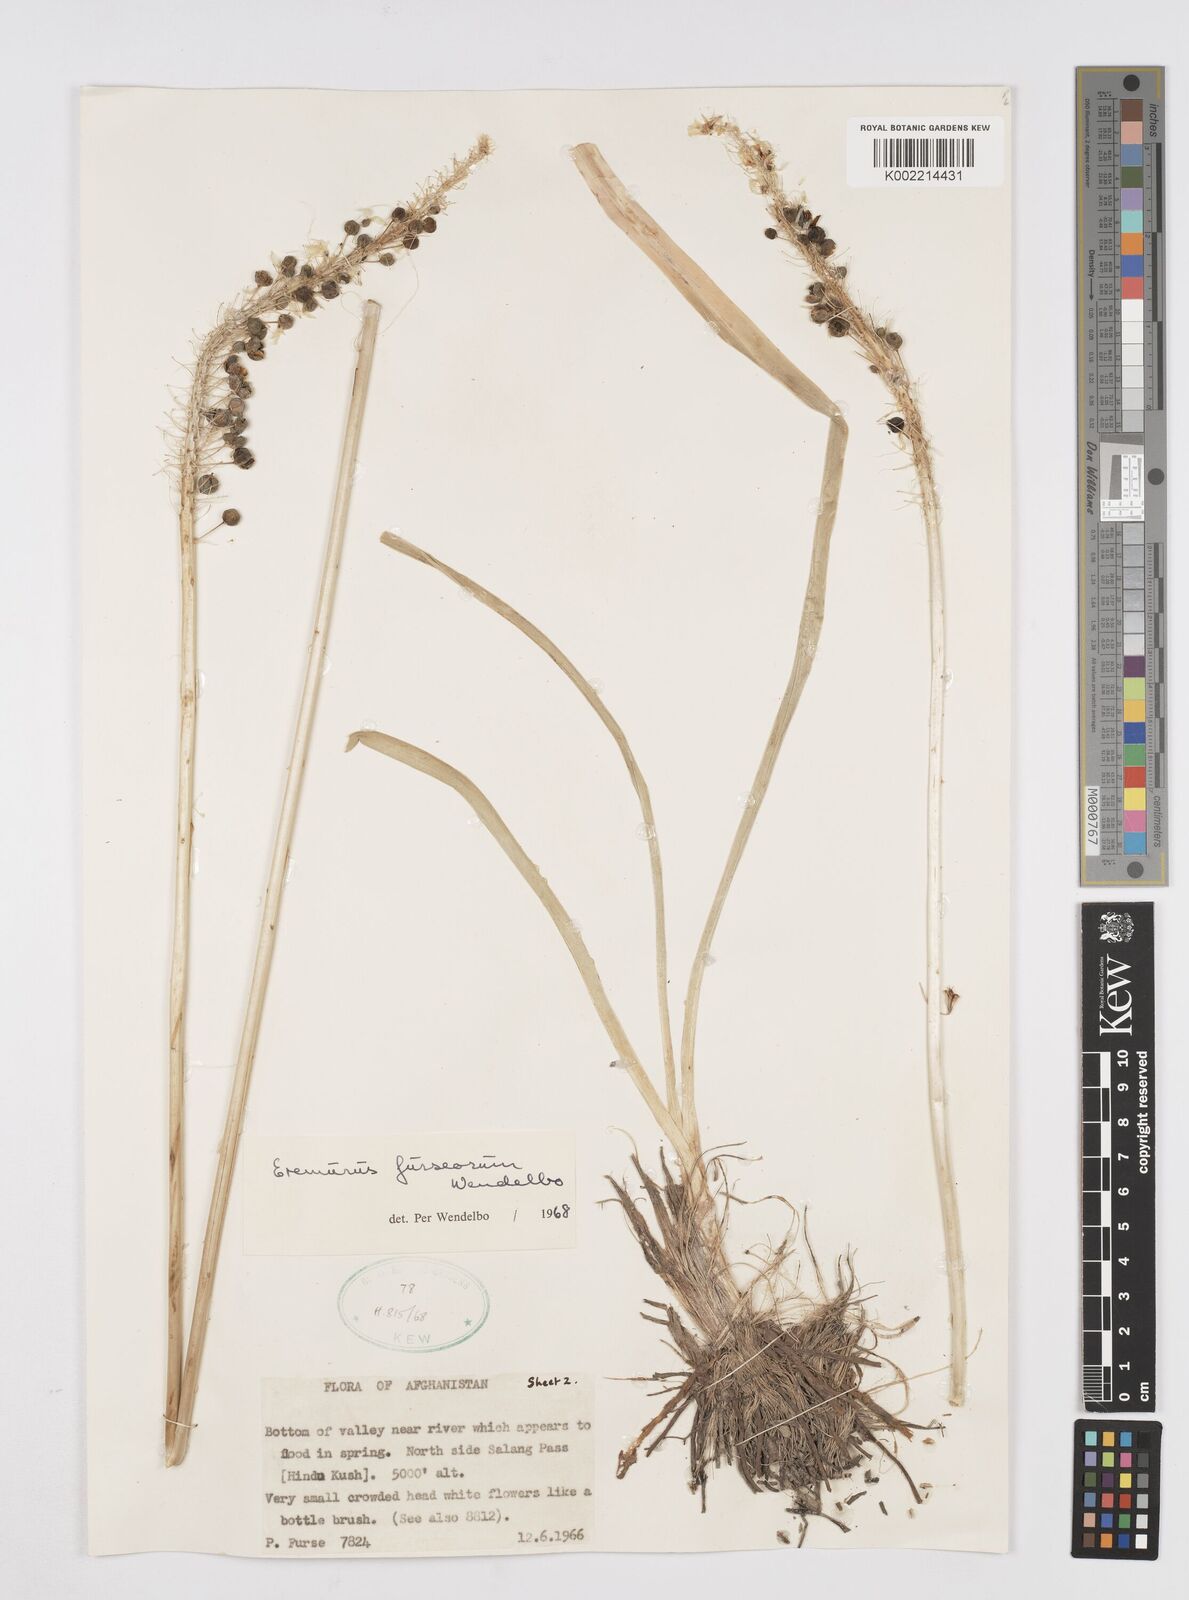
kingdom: Plantae
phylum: Tracheophyta
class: Liliopsida
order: Asparagales
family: Asphodelaceae
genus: Eremurus
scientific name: Eremurus furseorum
